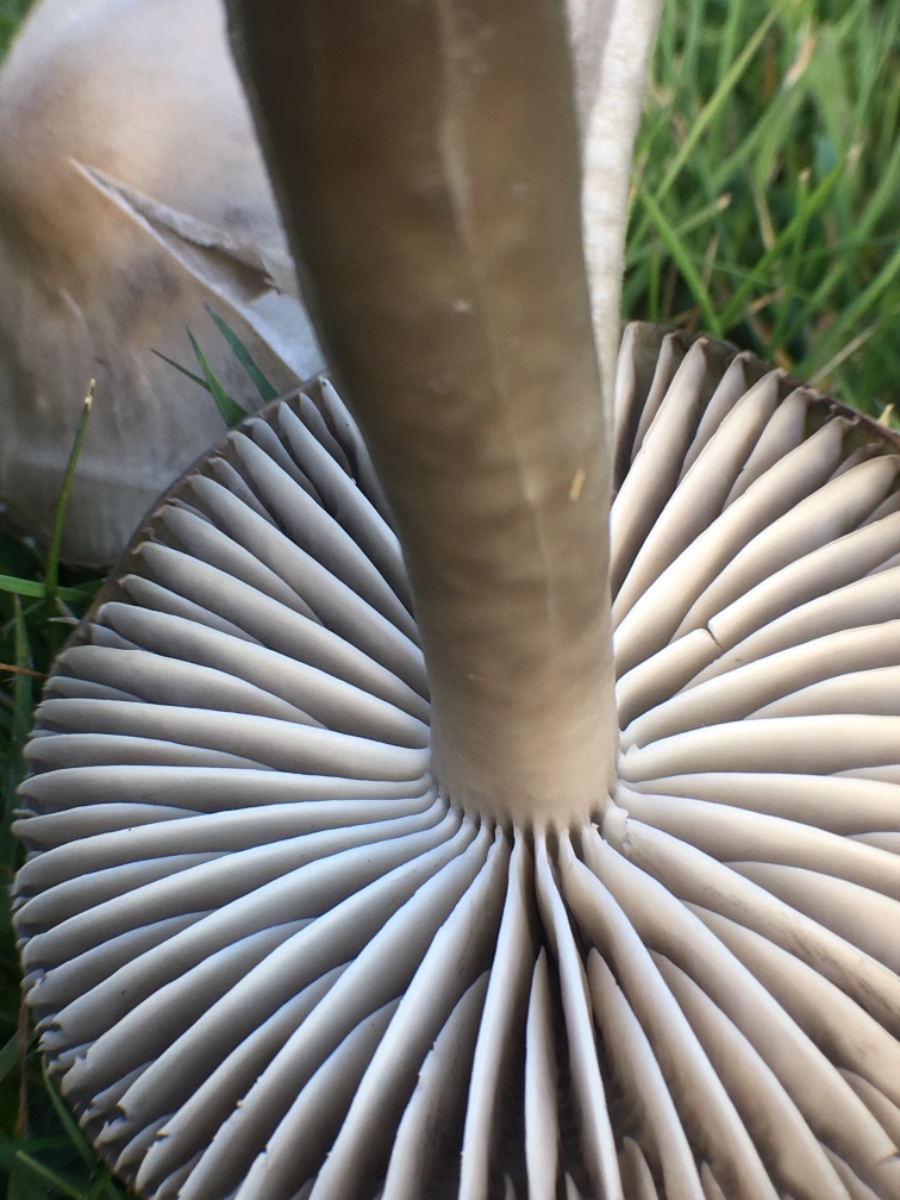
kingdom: Fungi
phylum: Basidiomycota
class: Agaricomycetes
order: Agaricales
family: Hygrophoraceae
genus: Gliophorus
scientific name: Gliophorus irrigatus
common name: slimet vokshat
